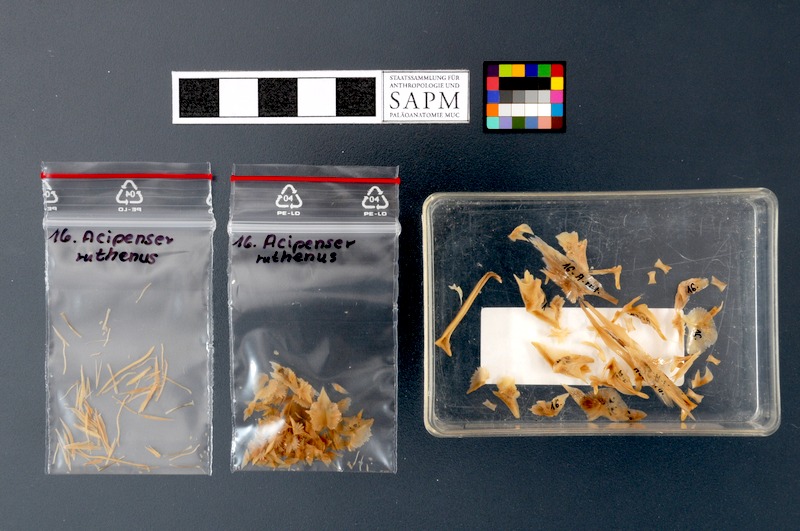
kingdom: Animalia
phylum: Chordata
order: Acipenseriformes
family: Acipenseridae
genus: Acipenser
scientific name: Acipenser ruthenus
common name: Sterlet
